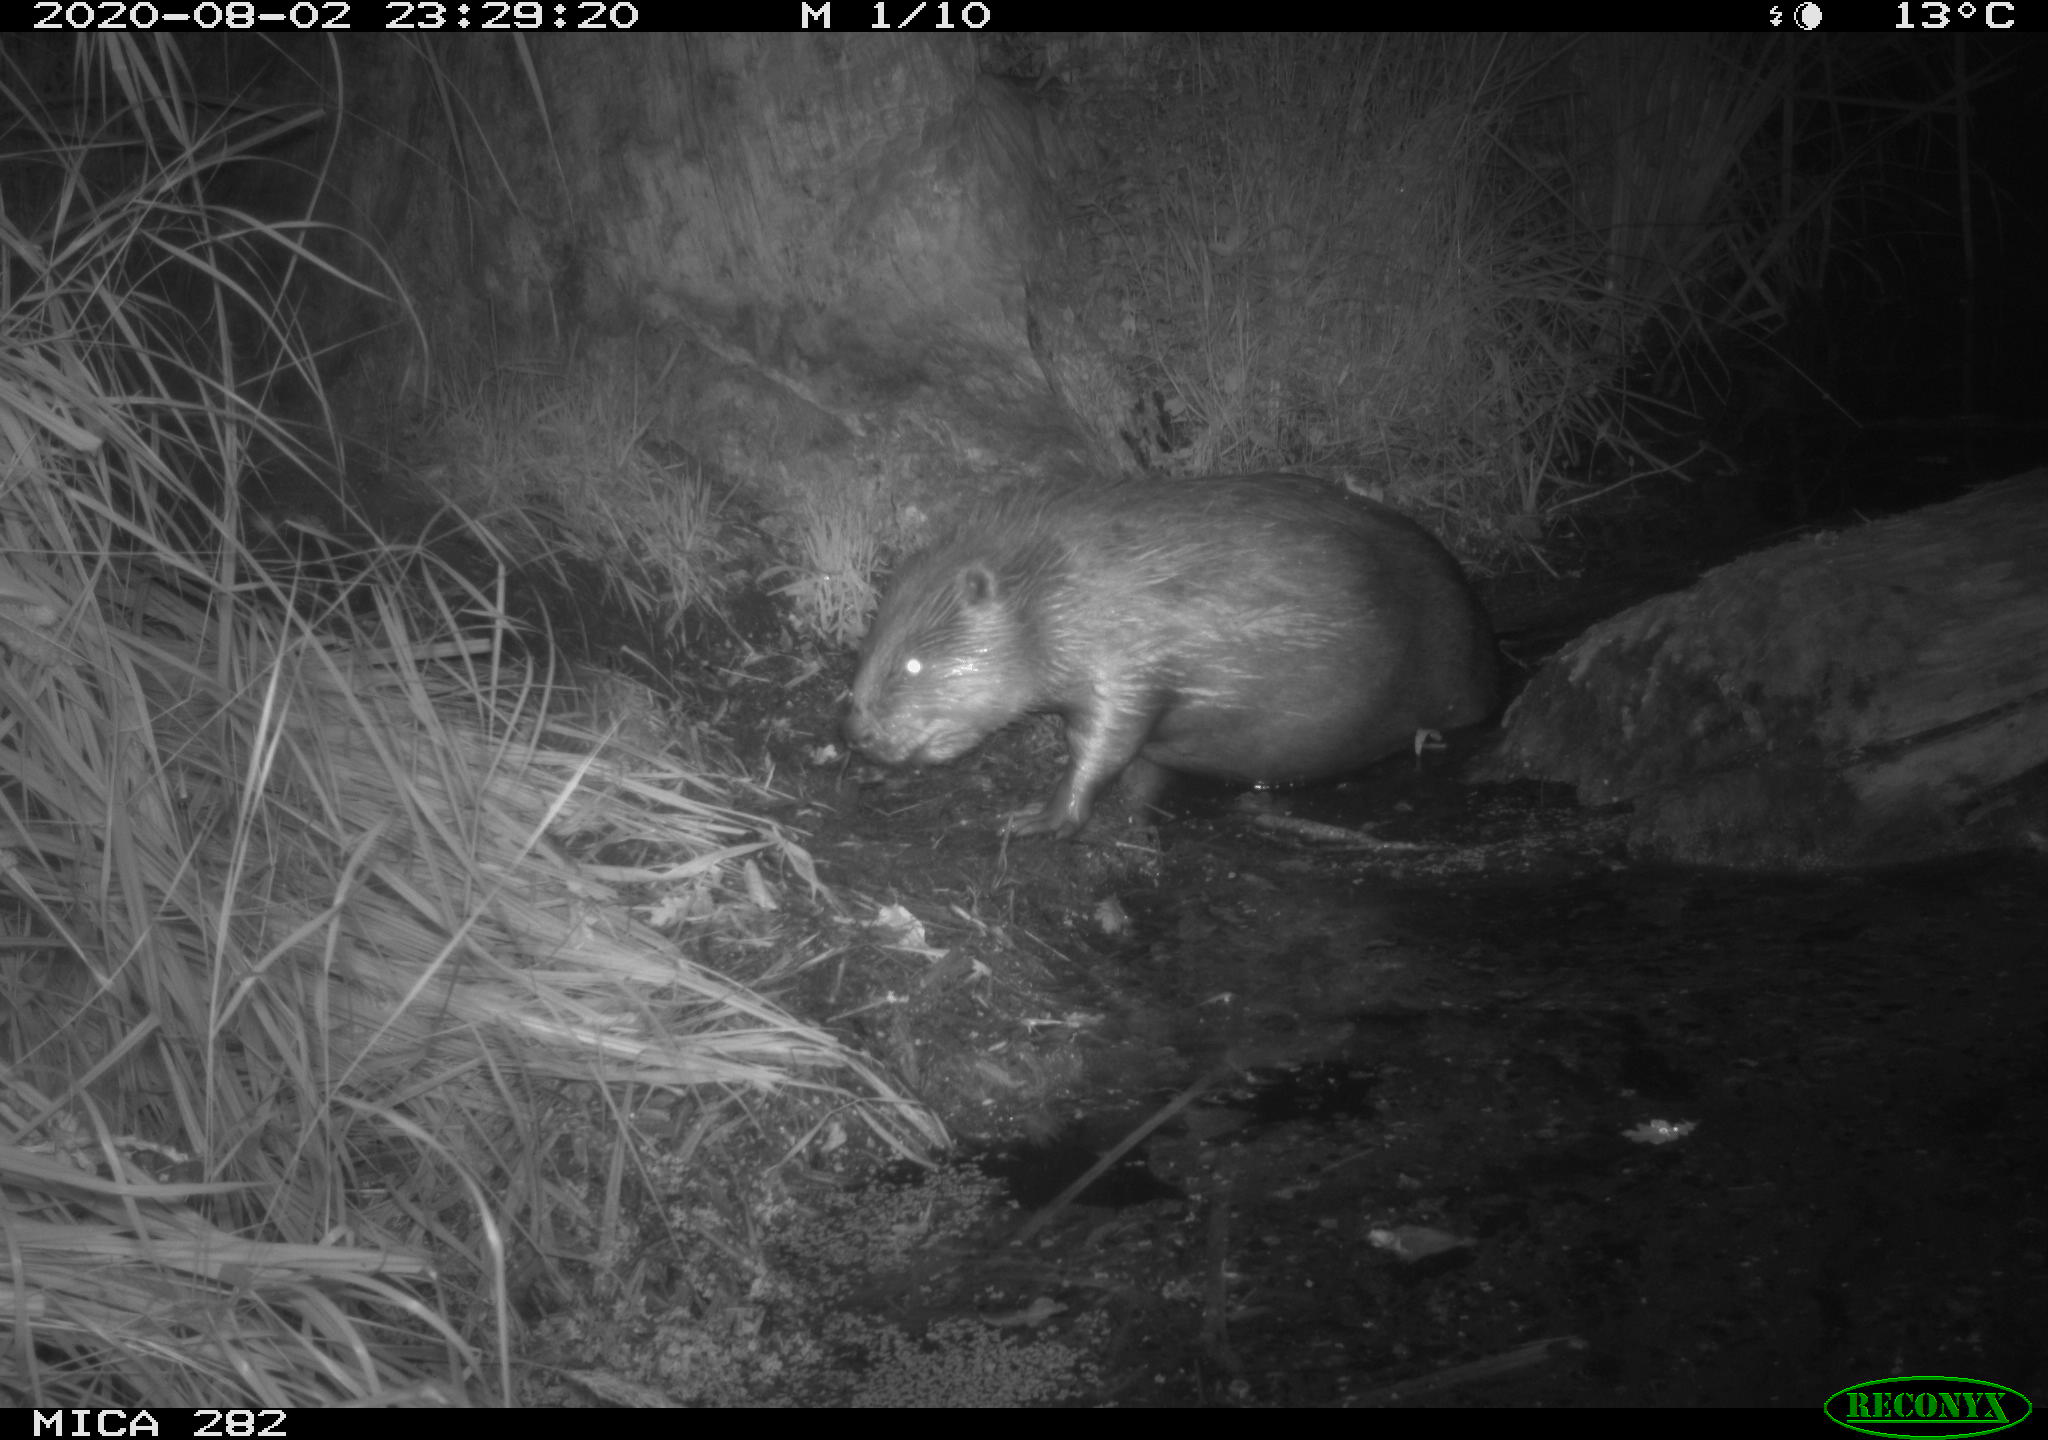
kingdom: Animalia
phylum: Chordata
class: Mammalia
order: Rodentia
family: Castoridae
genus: Castor
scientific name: Castor fiber
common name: Eurasian beaver
